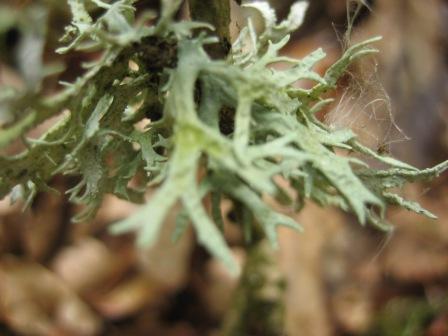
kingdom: Fungi
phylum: Ascomycota
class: Lecanoromycetes
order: Lecanorales
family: Parmeliaceae
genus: Evernia
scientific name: Evernia prunastri
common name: almindelig slåenlav
